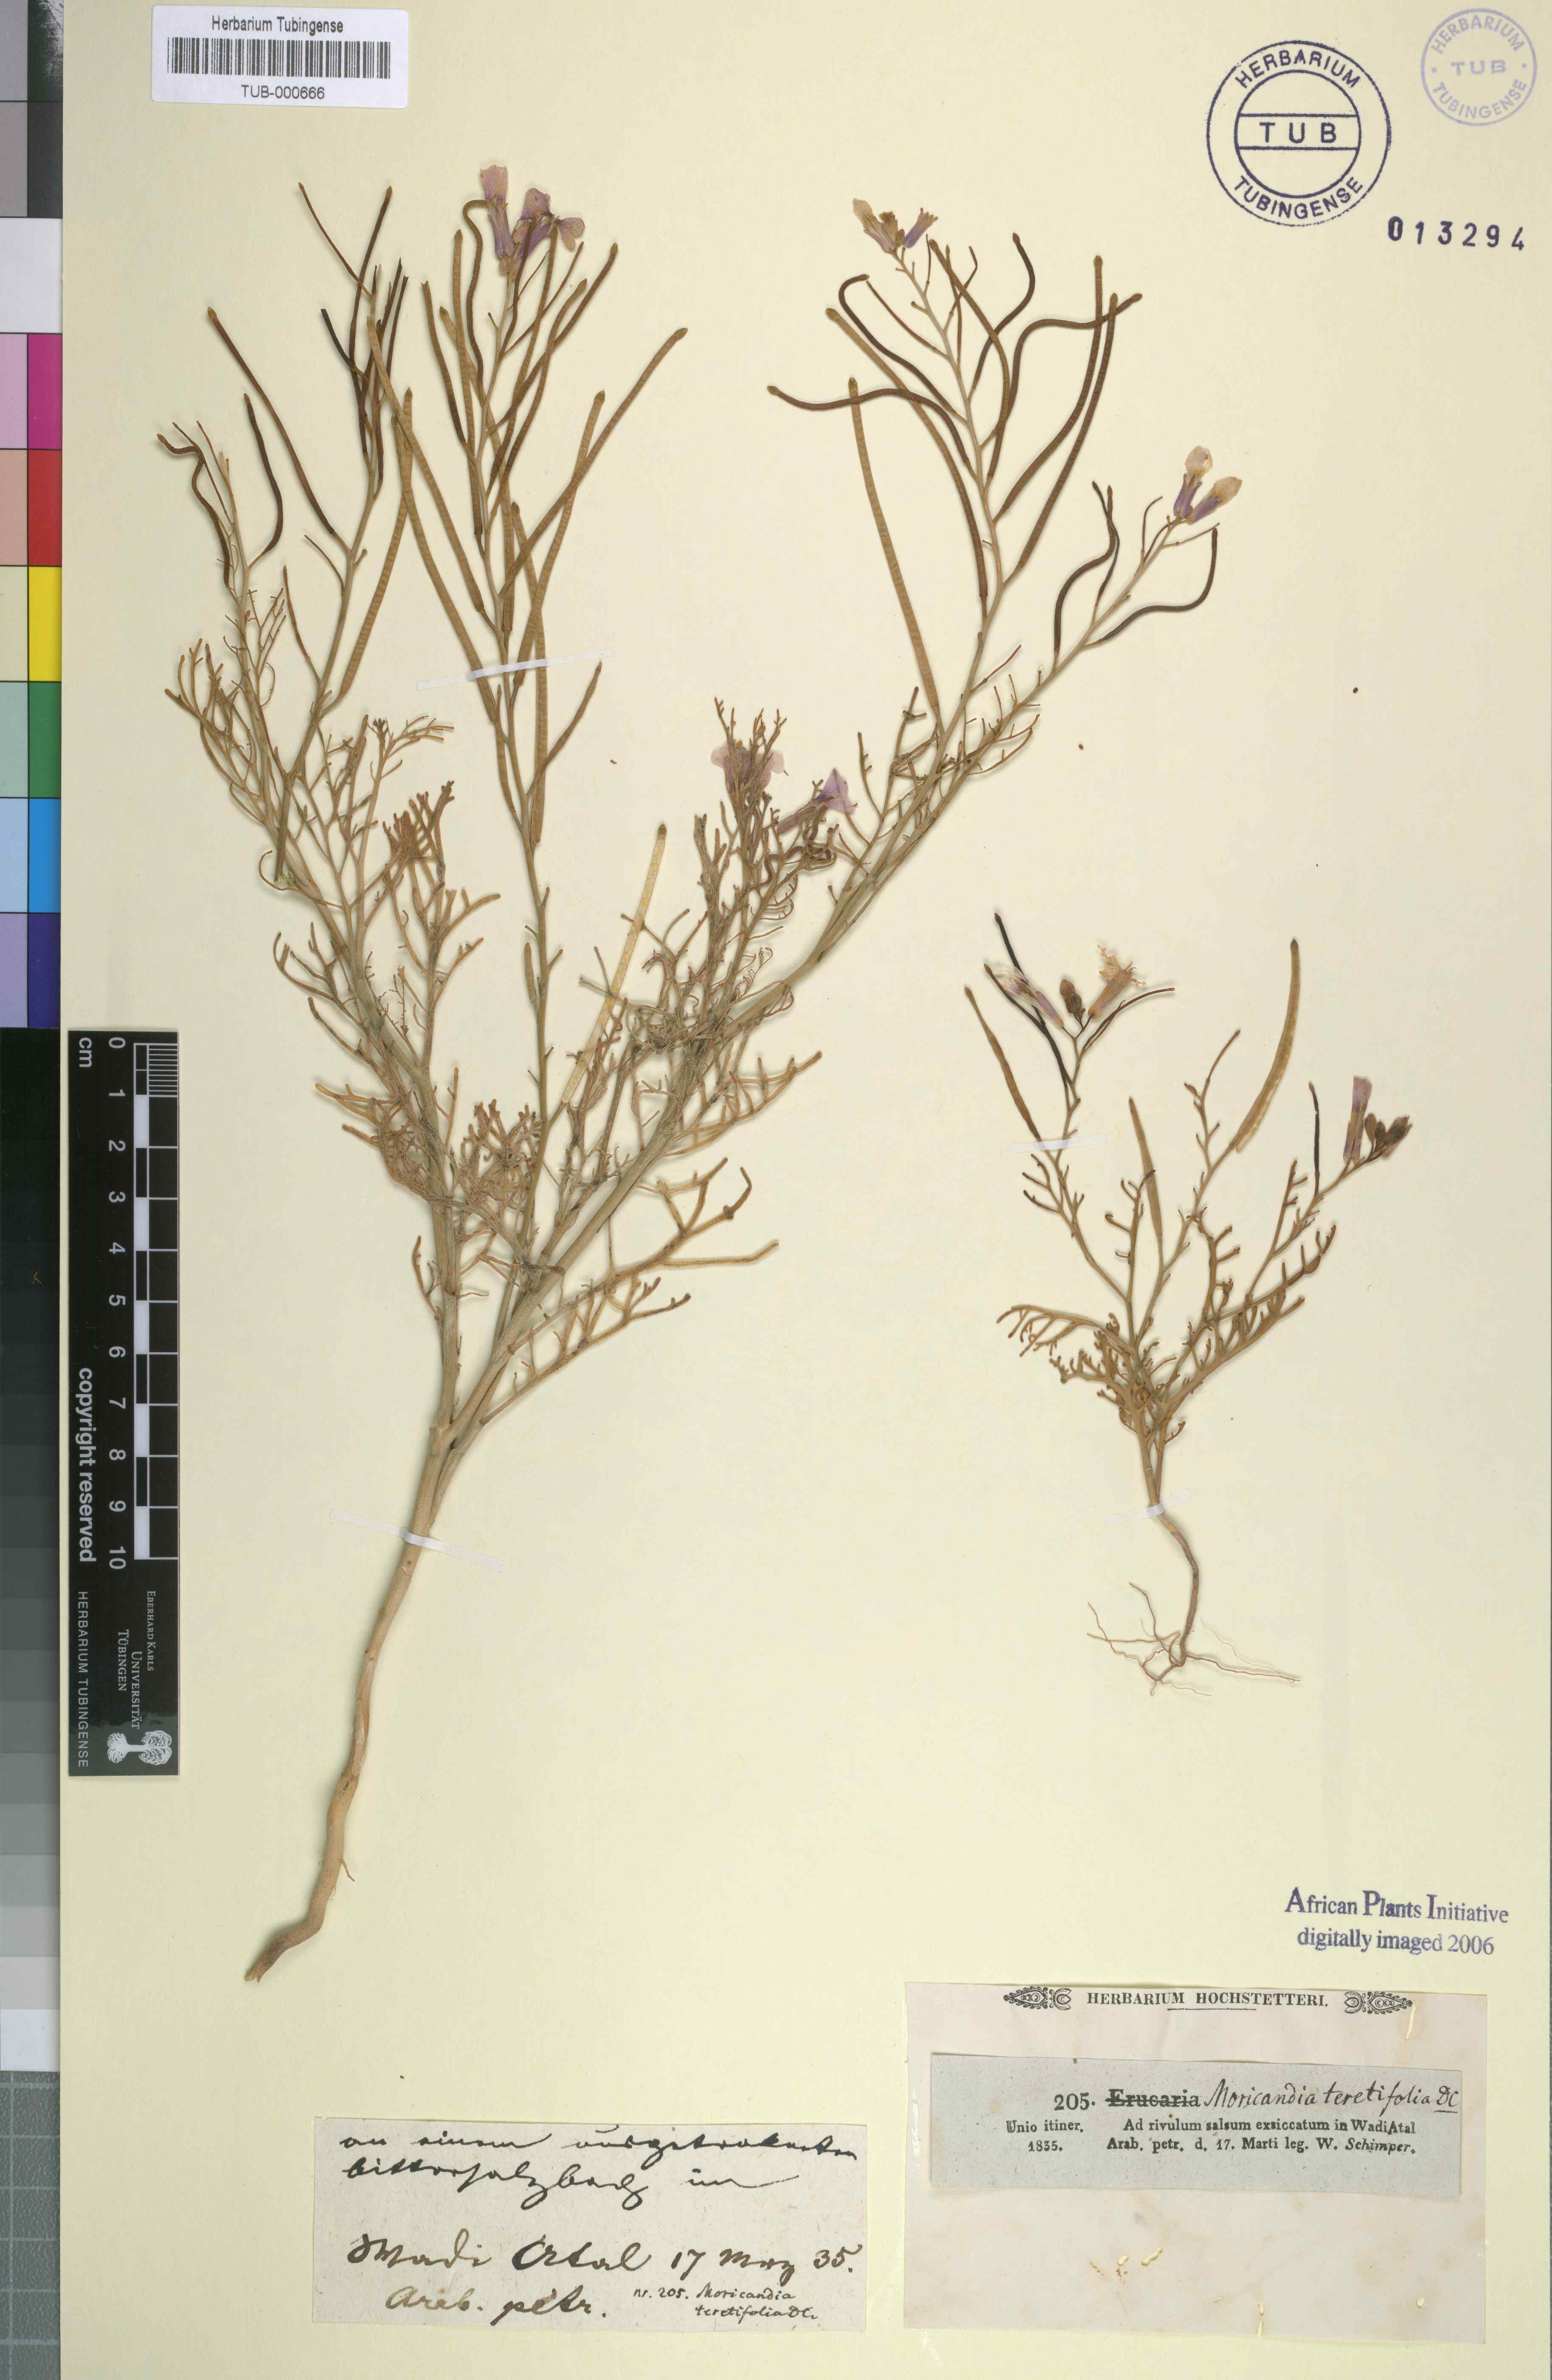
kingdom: Plantae
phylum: Tracheophyta
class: Magnoliopsida
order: Brassicales
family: Brassicaceae
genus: Pseuderucaria
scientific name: Pseuderucaria teretifolia
